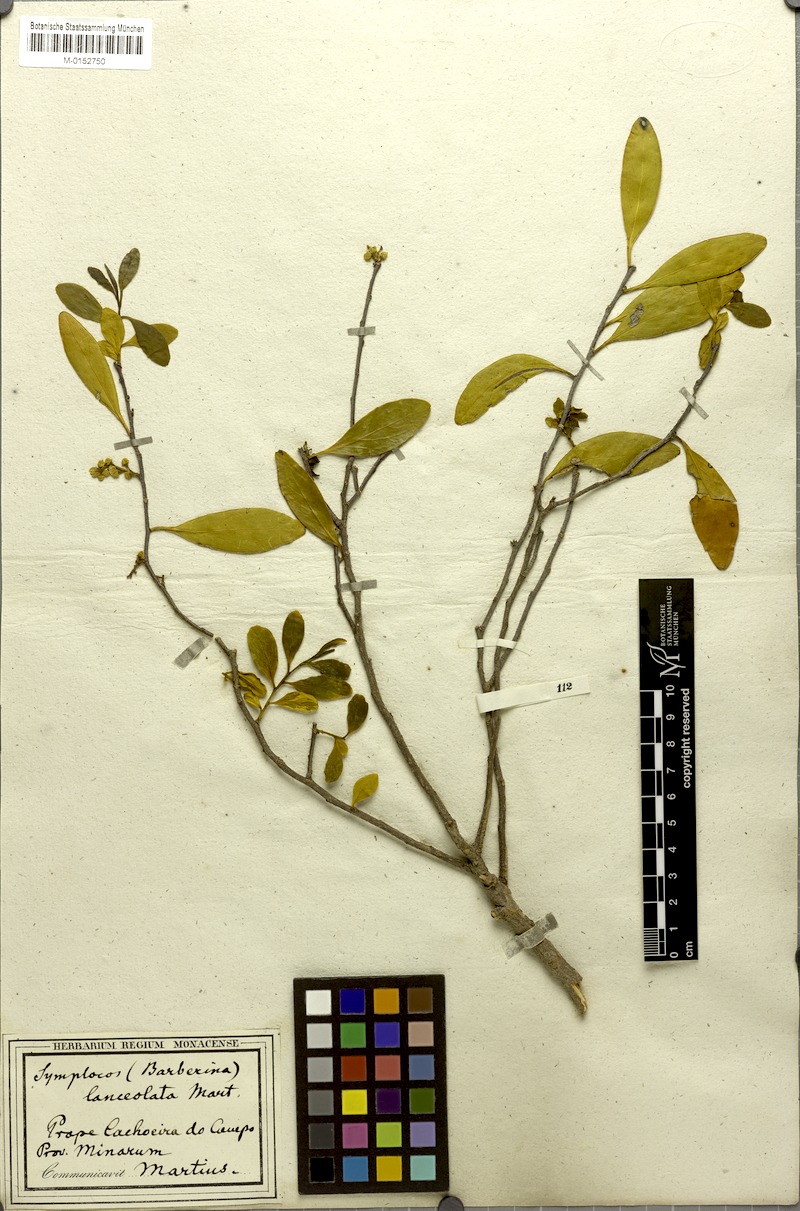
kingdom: Plantae
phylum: Tracheophyta
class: Magnoliopsida
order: Ericales
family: Symplocaceae
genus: Symplocos
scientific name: Symplocos oblongifolia
